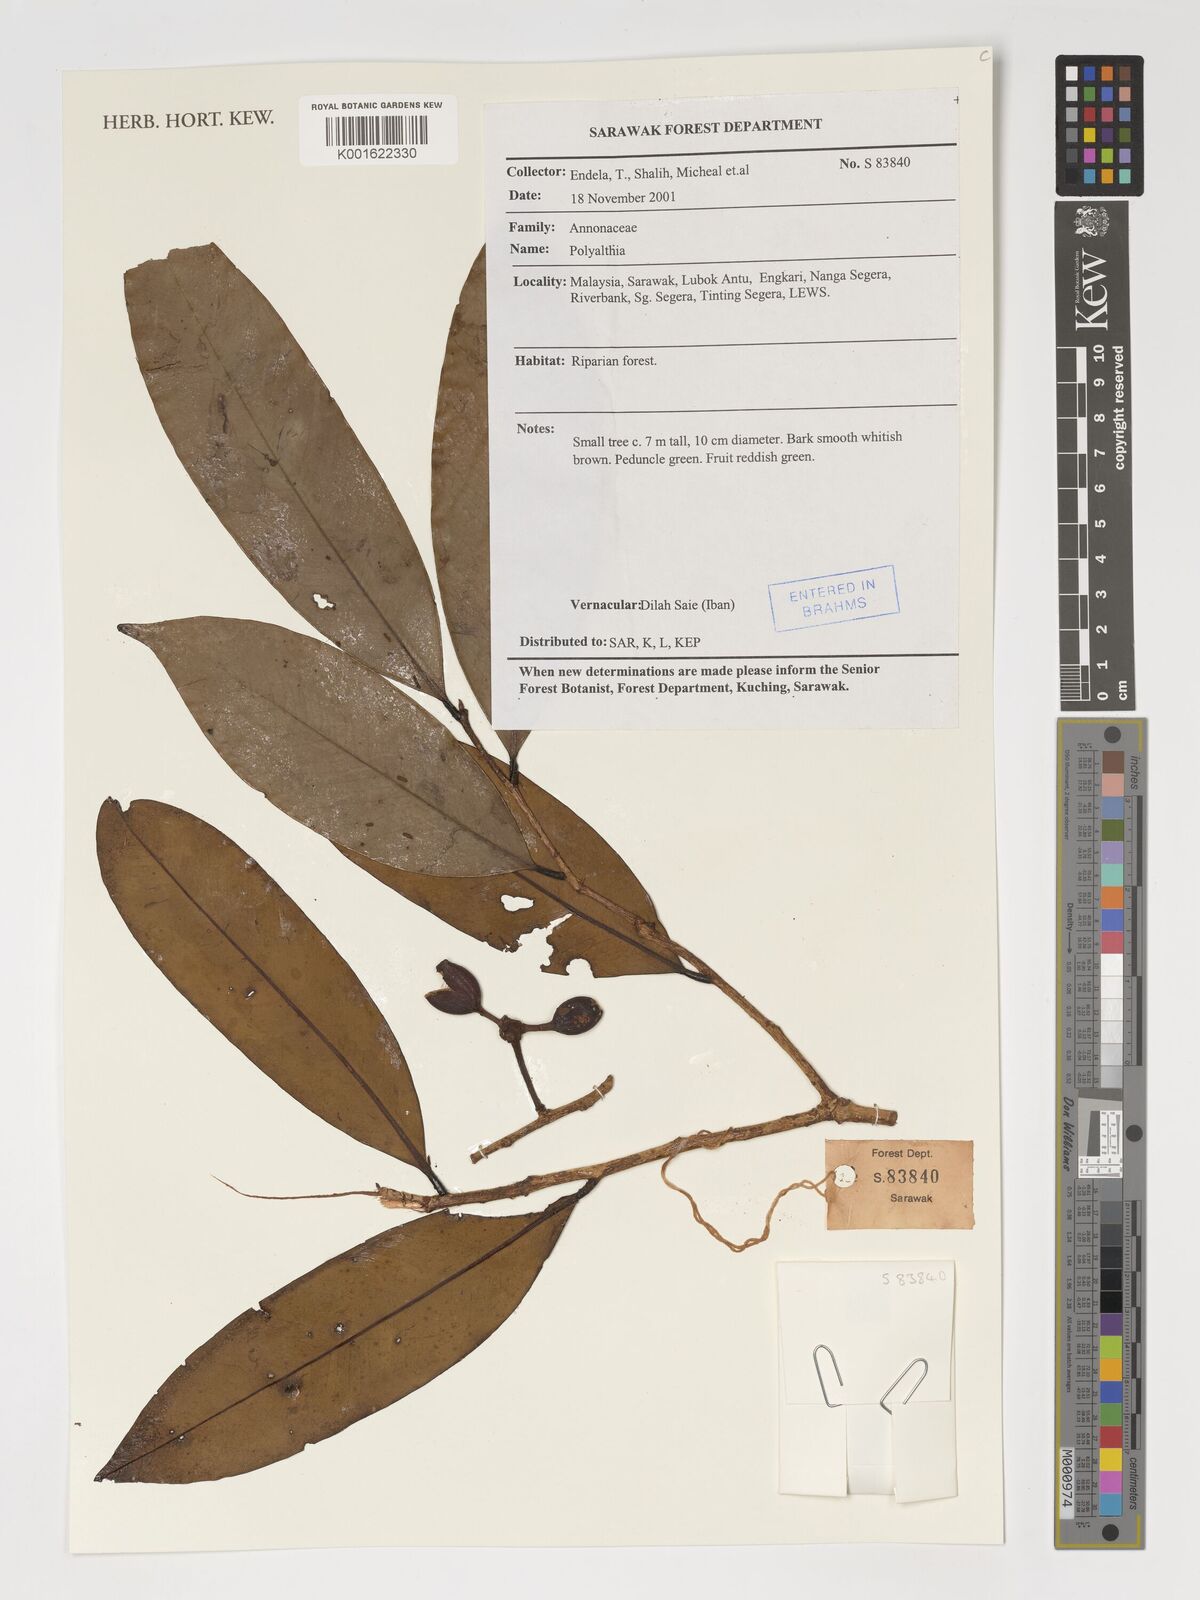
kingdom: Plantae
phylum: Tracheophyta
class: Magnoliopsida
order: Magnoliales
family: Annonaceae
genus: Polyalthia
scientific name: Polyalthia
